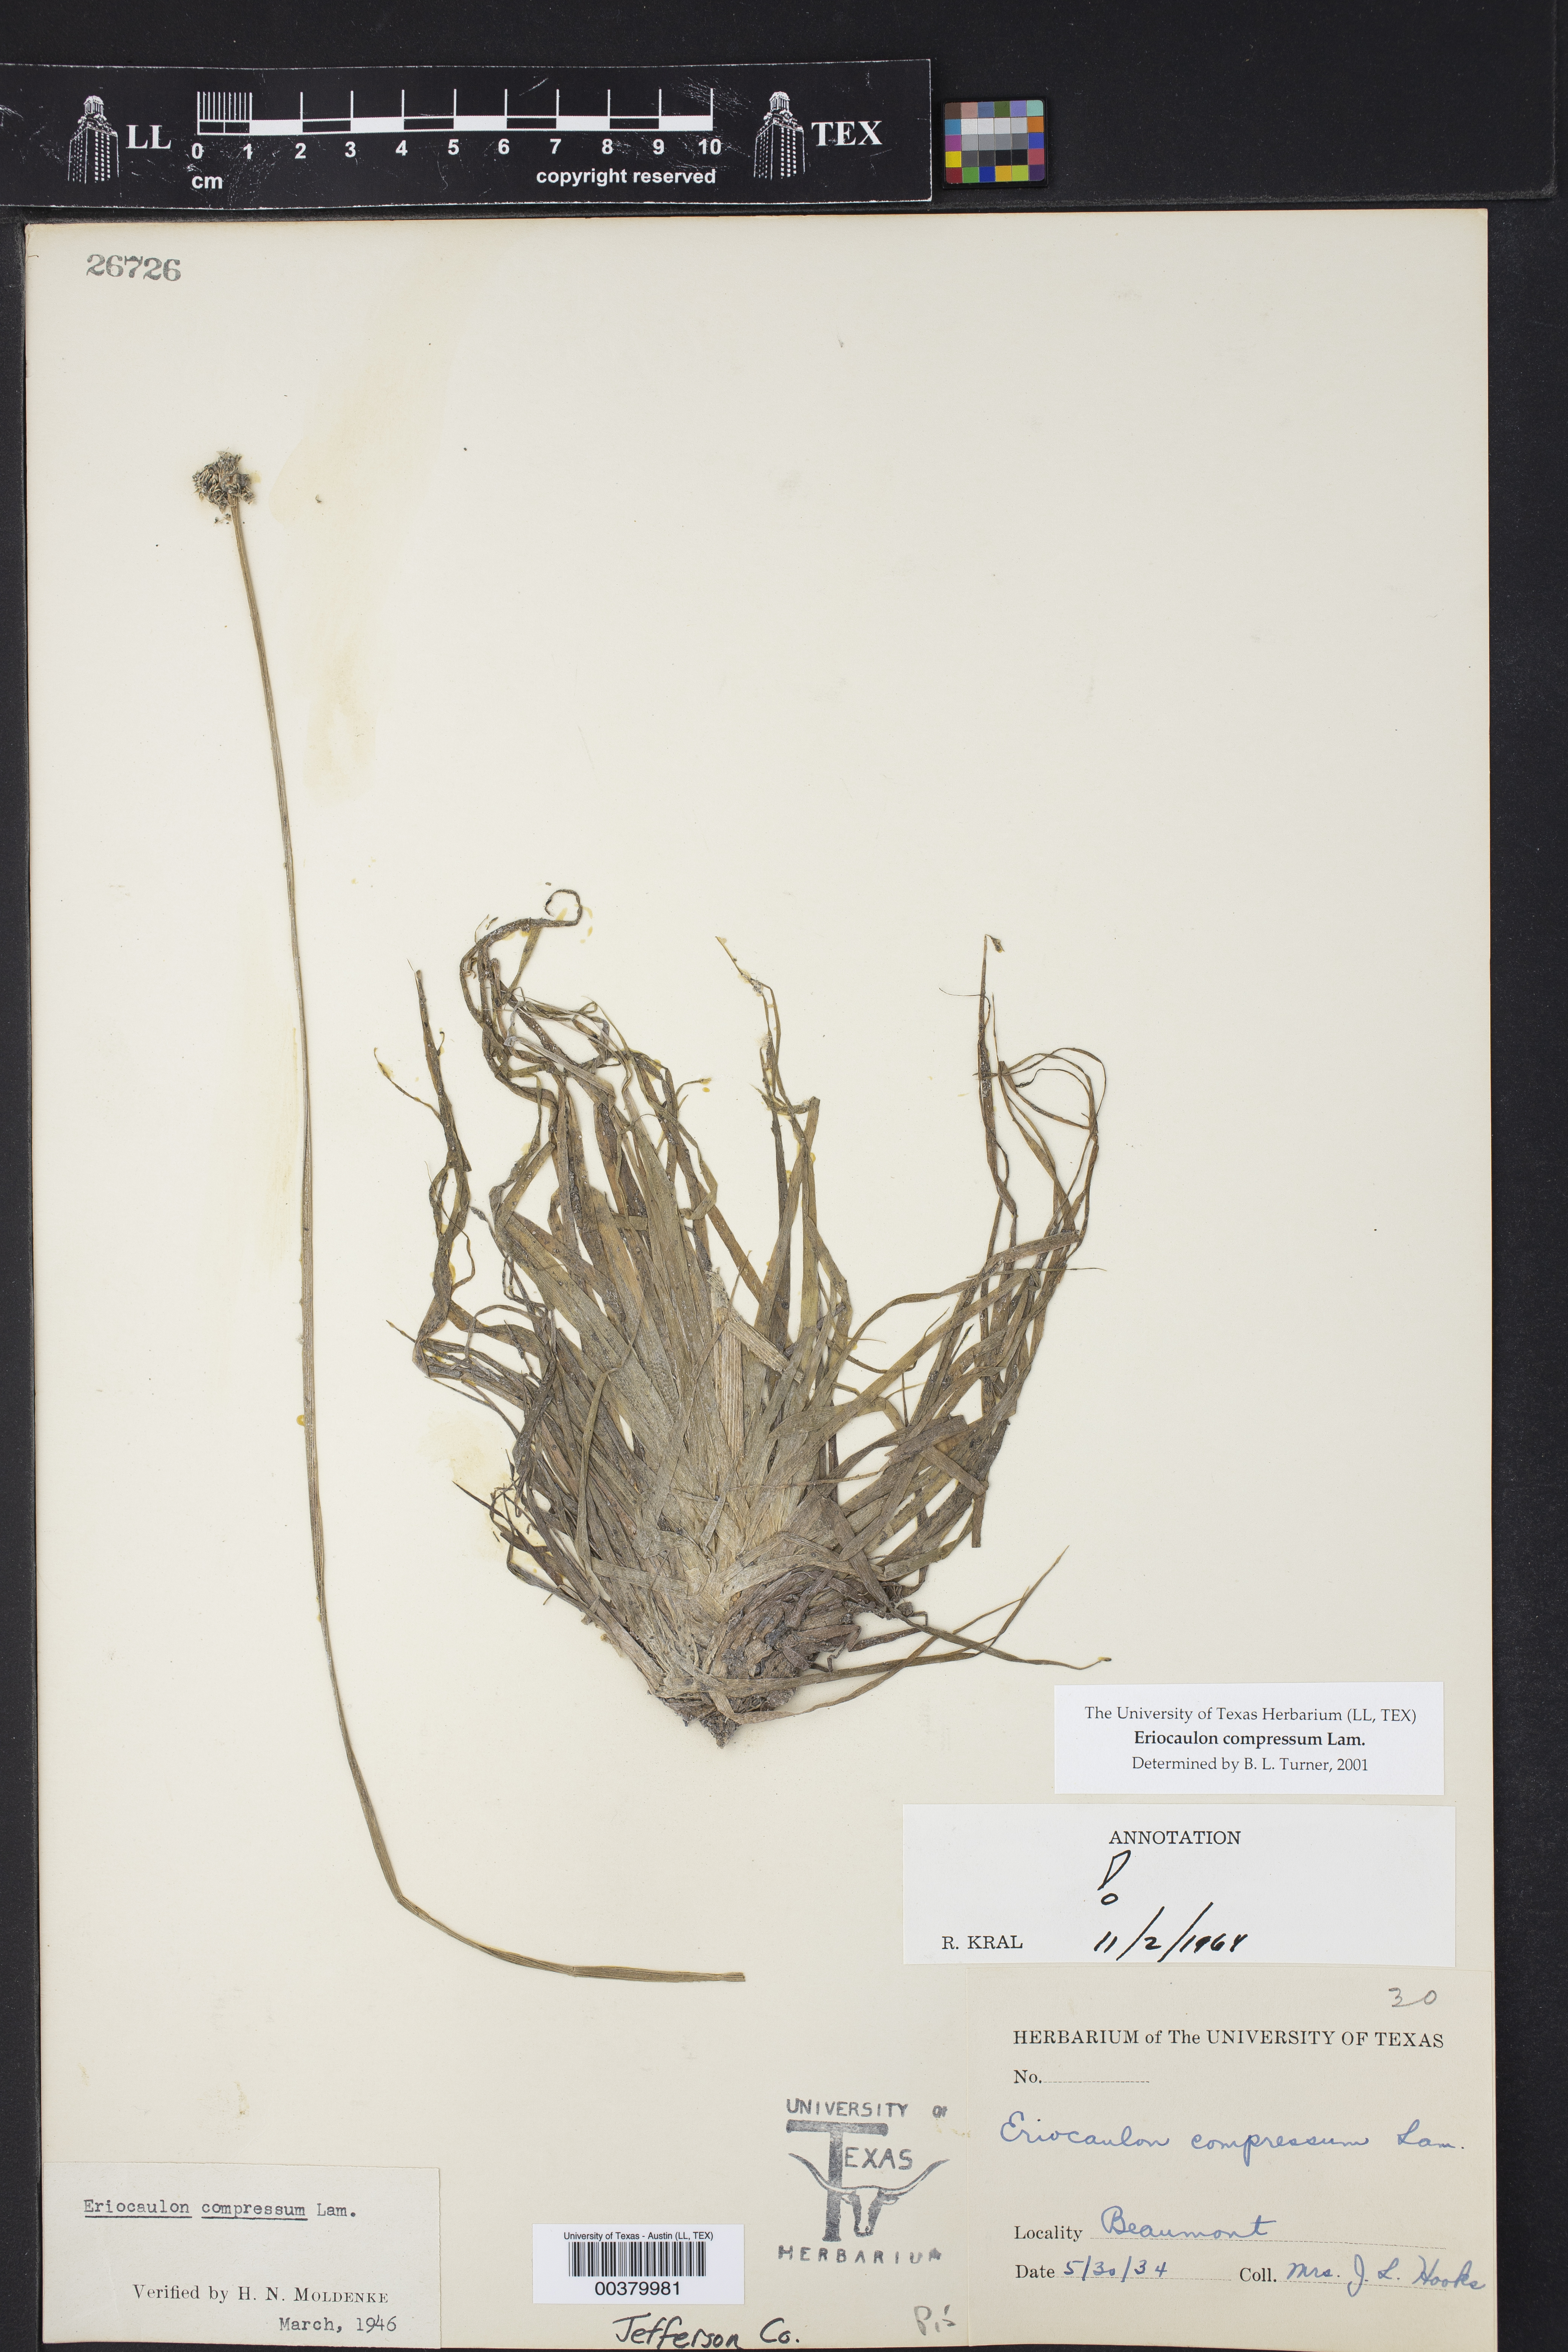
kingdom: Plantae
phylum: Tracheophyta
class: Liliopsida
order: Poales
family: Eriocaulaceae
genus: Eriocaulon
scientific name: Eriocaulon compressum
